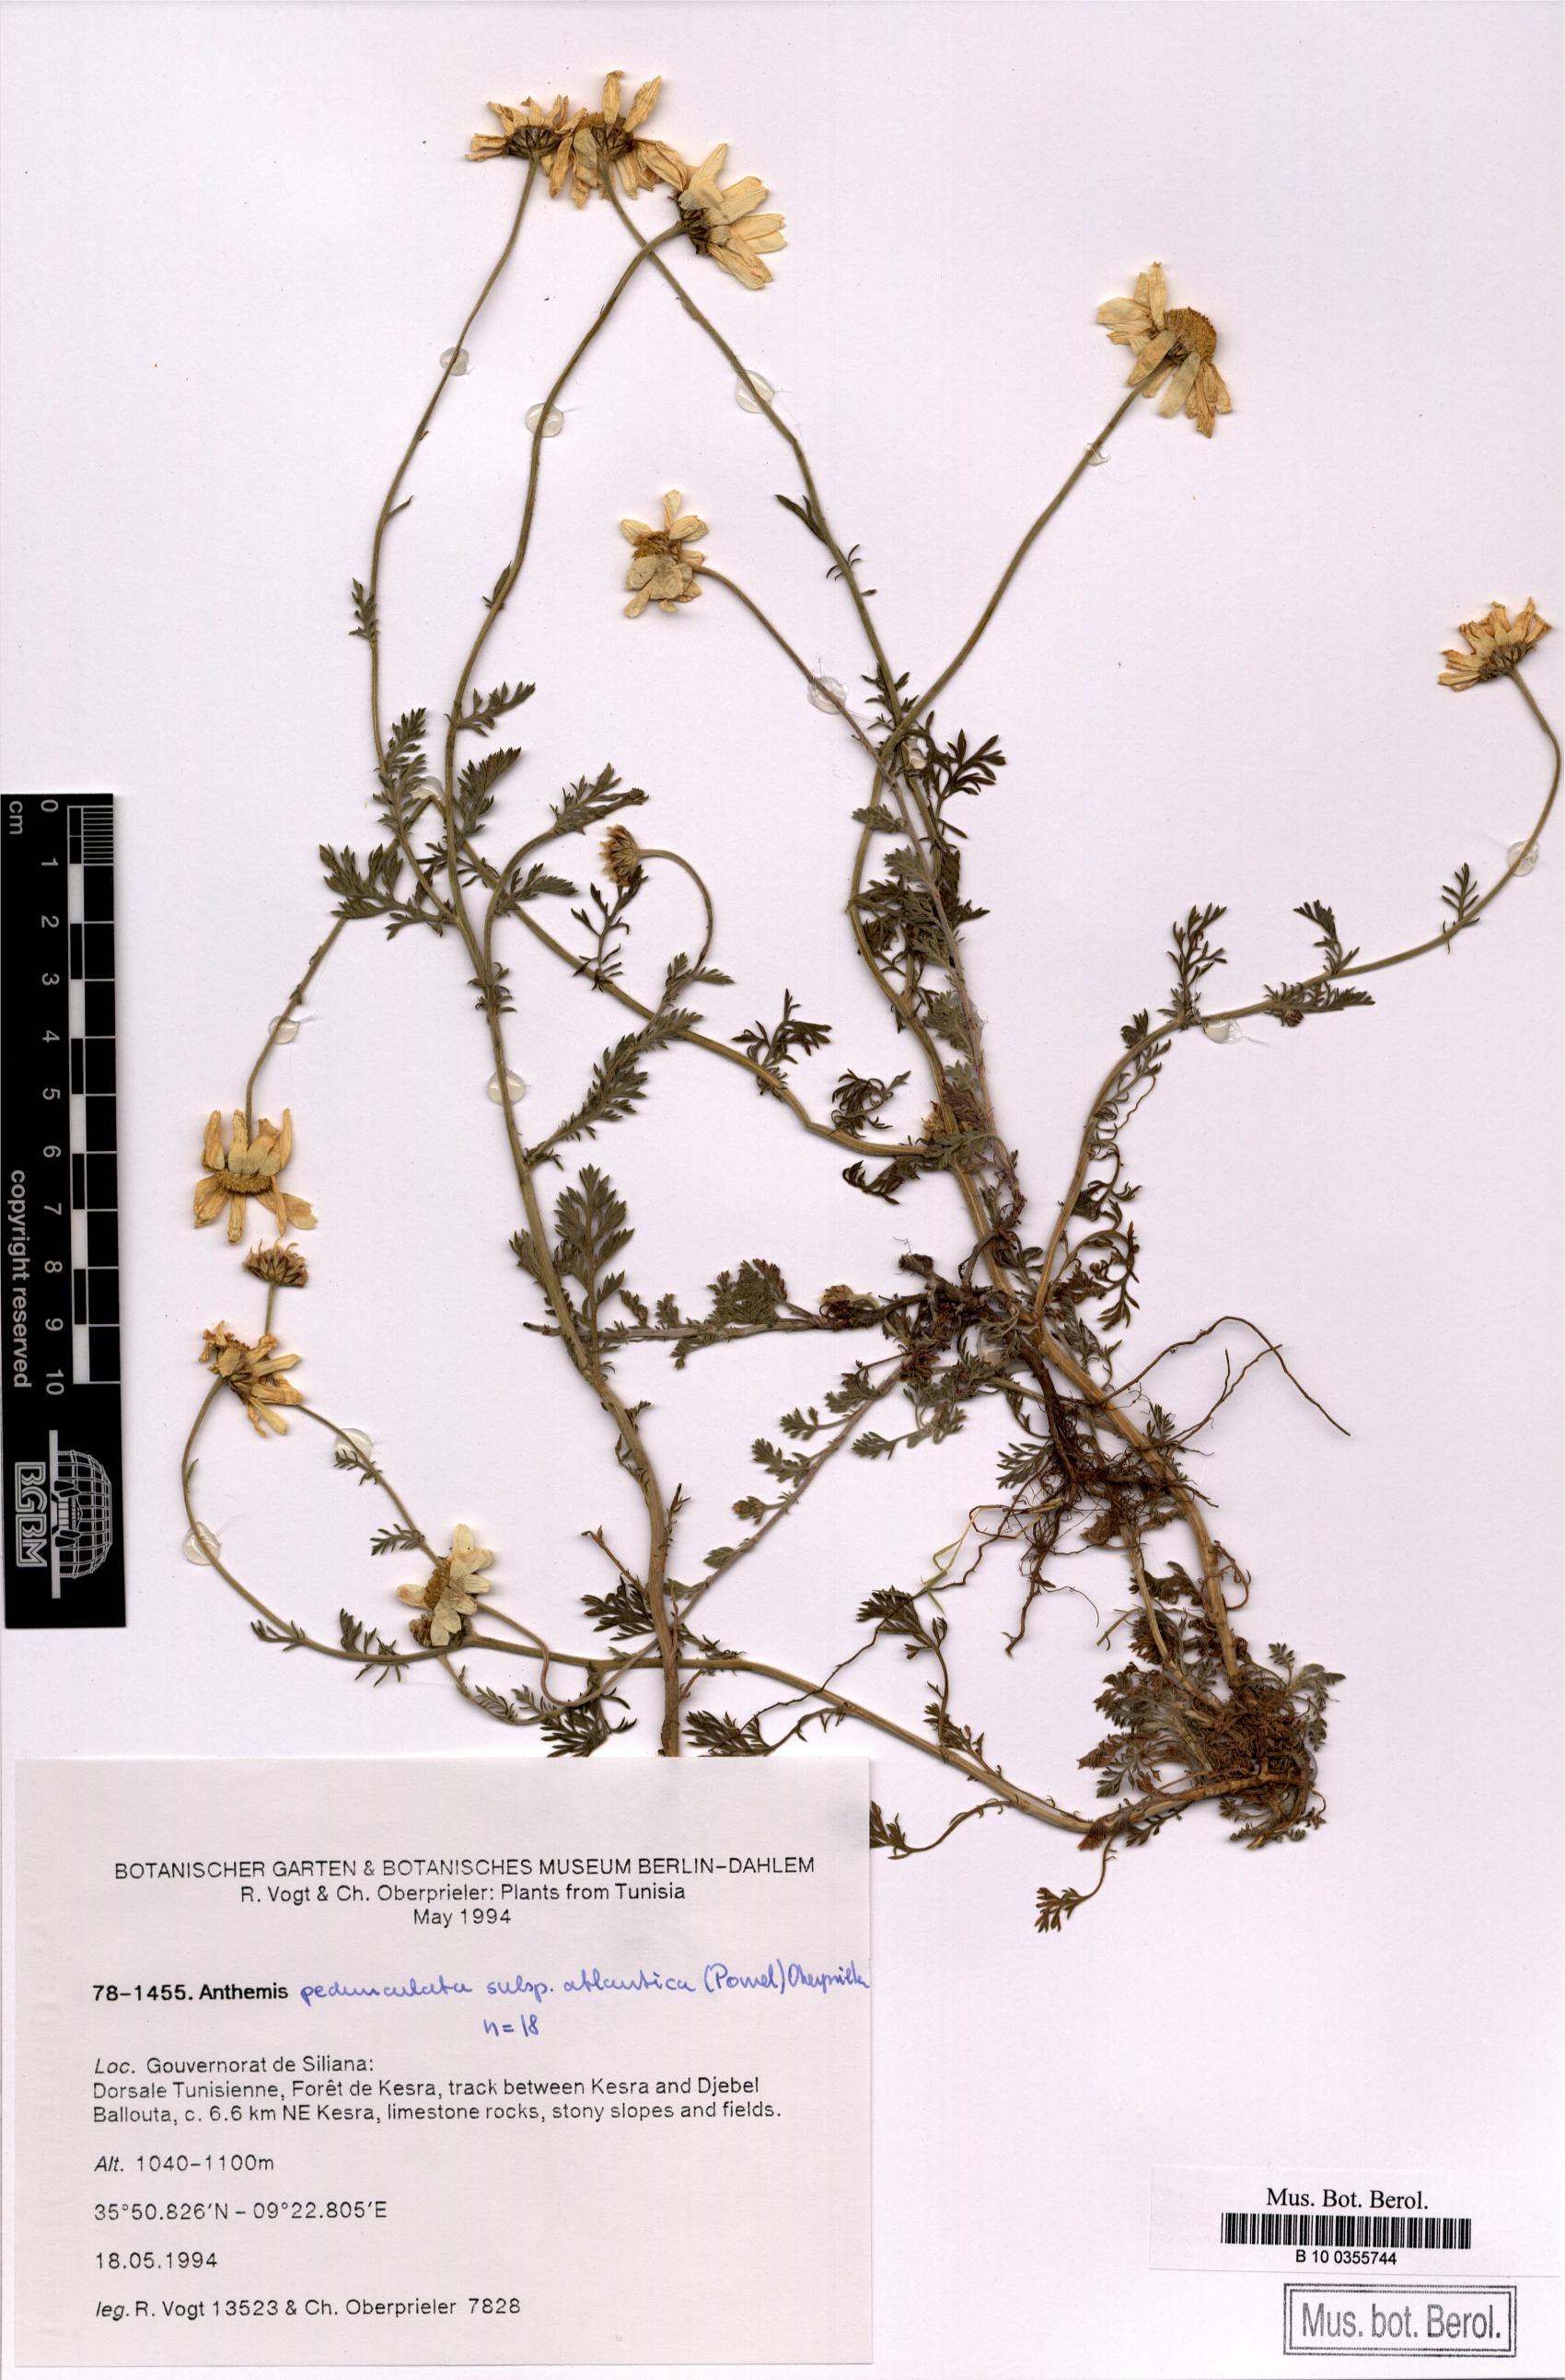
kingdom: Plantae
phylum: Tracheophyta
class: Magnoliopsida
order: Asterales
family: Asteraceae
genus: Anthemis
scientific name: Anthemis pedunculata
